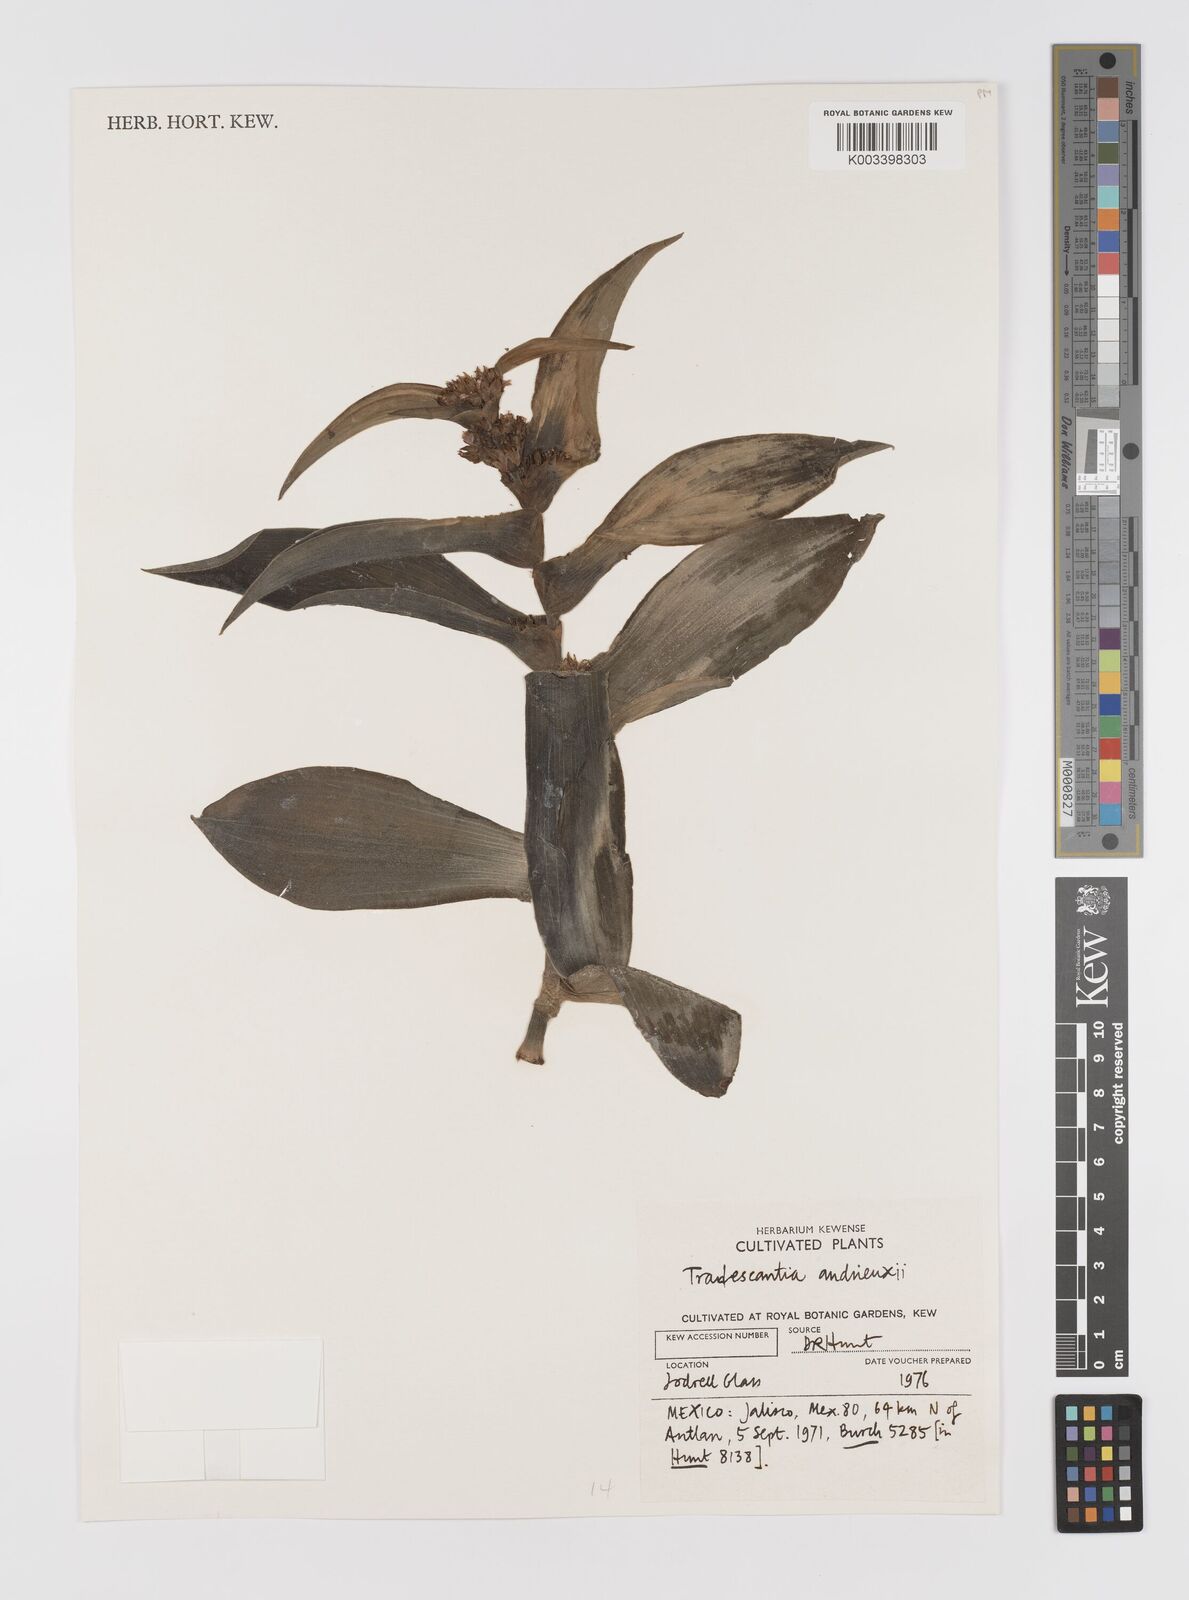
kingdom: Plantae
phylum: Tracheophyta
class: Liliopsida
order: Commelinales
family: Commelinaceae
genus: Tradescantia
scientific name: Tradescantia andrieuxii
